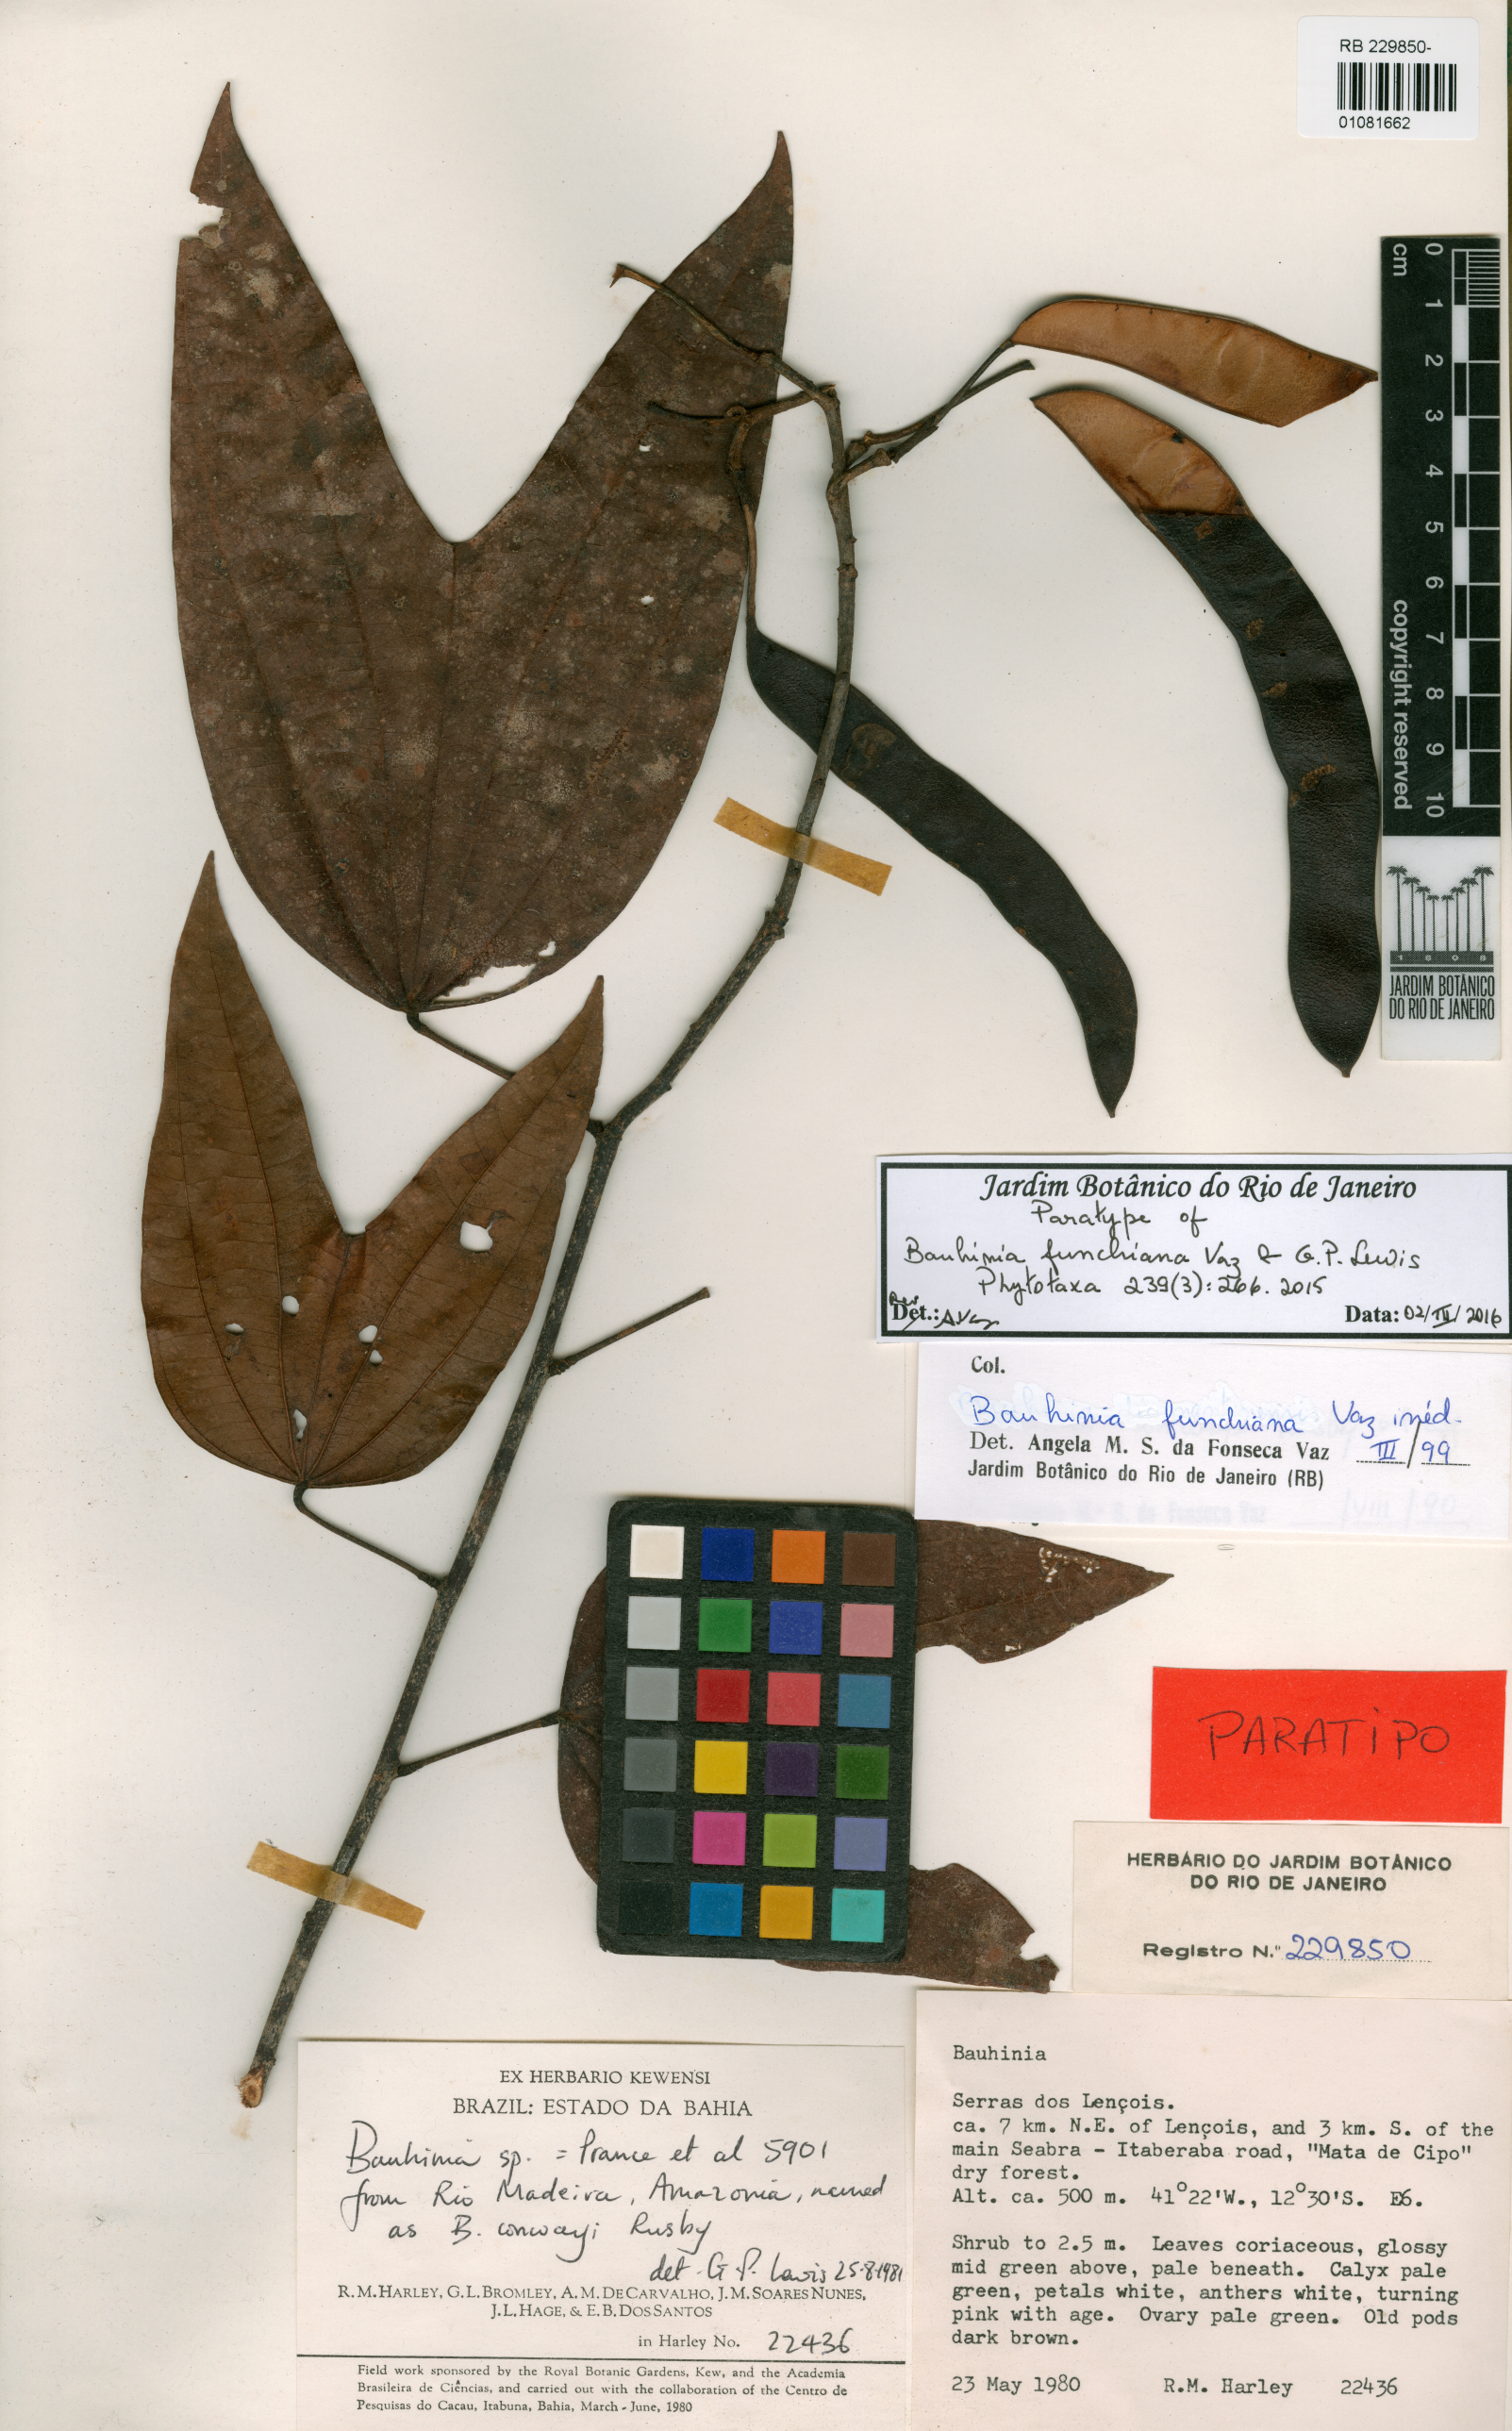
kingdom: Plantae
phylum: Tracheophyta
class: Magnoliopsida
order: Fabales
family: Fabaceae
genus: Bauhinia
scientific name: Bauhinia funchiana
